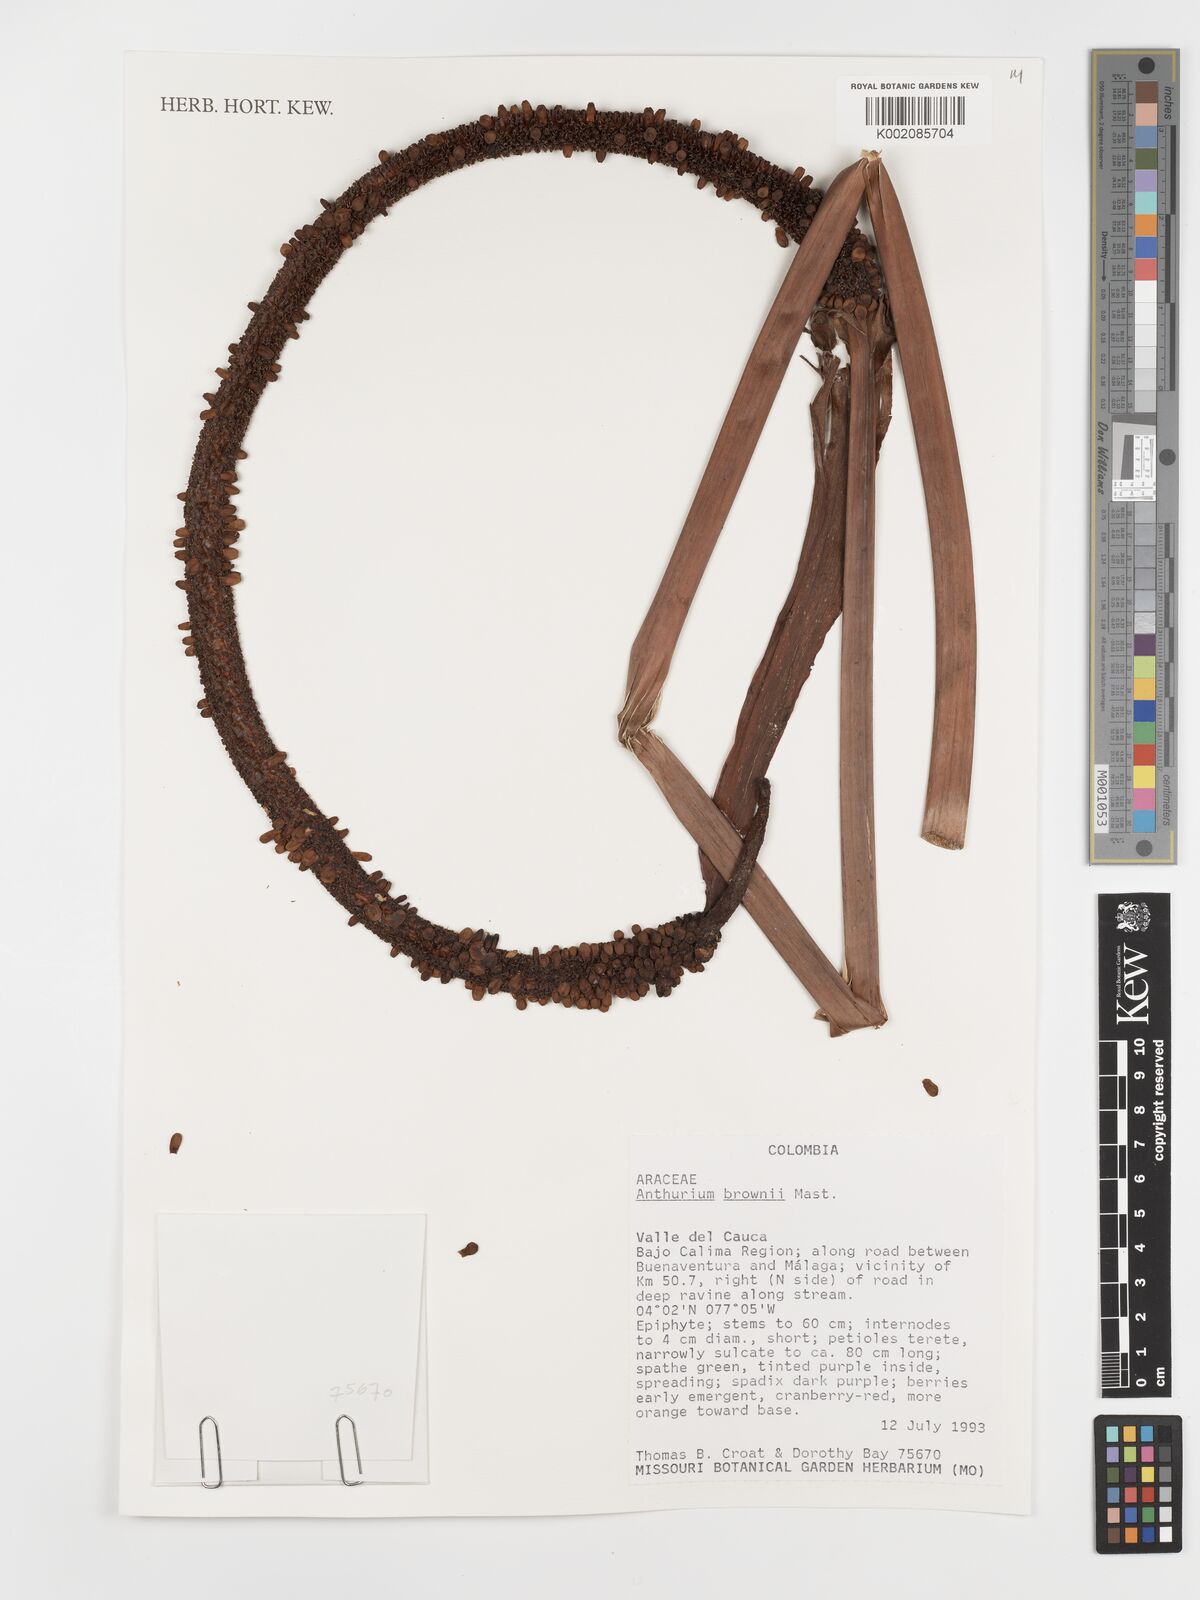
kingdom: Plantae
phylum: Tracheophyta
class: Liliopsida
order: Alismatales
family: Araceae
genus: Anthurium
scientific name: Anthurium brownii
